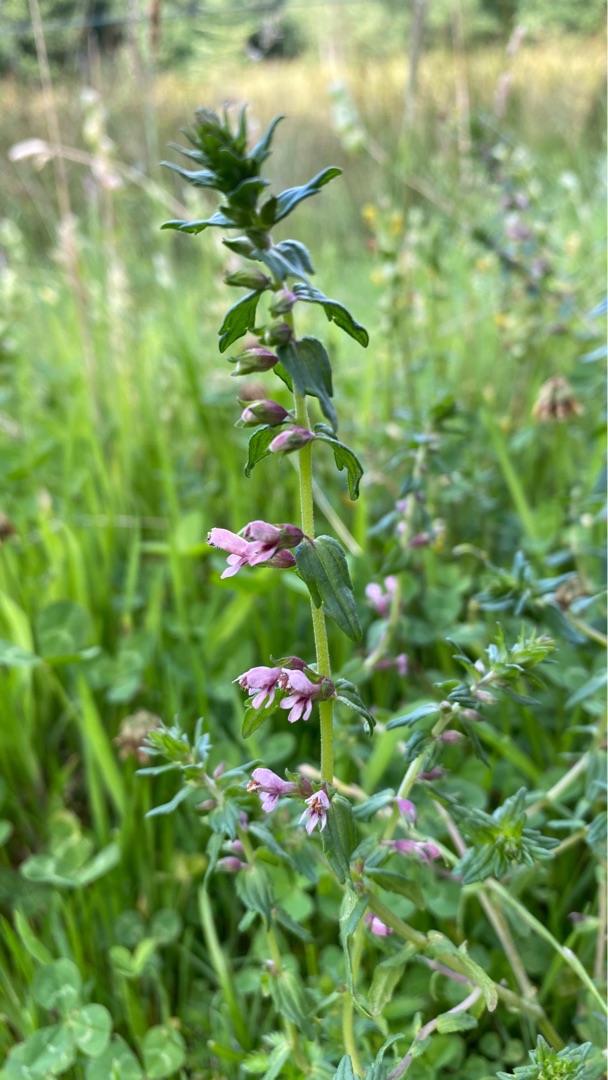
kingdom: Plantae
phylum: Tracheophyta
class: Magnoliopsida
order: Lamiales
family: Orobanchaceae
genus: Odontites
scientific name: Odontites vernus
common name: Mark-rødtop
